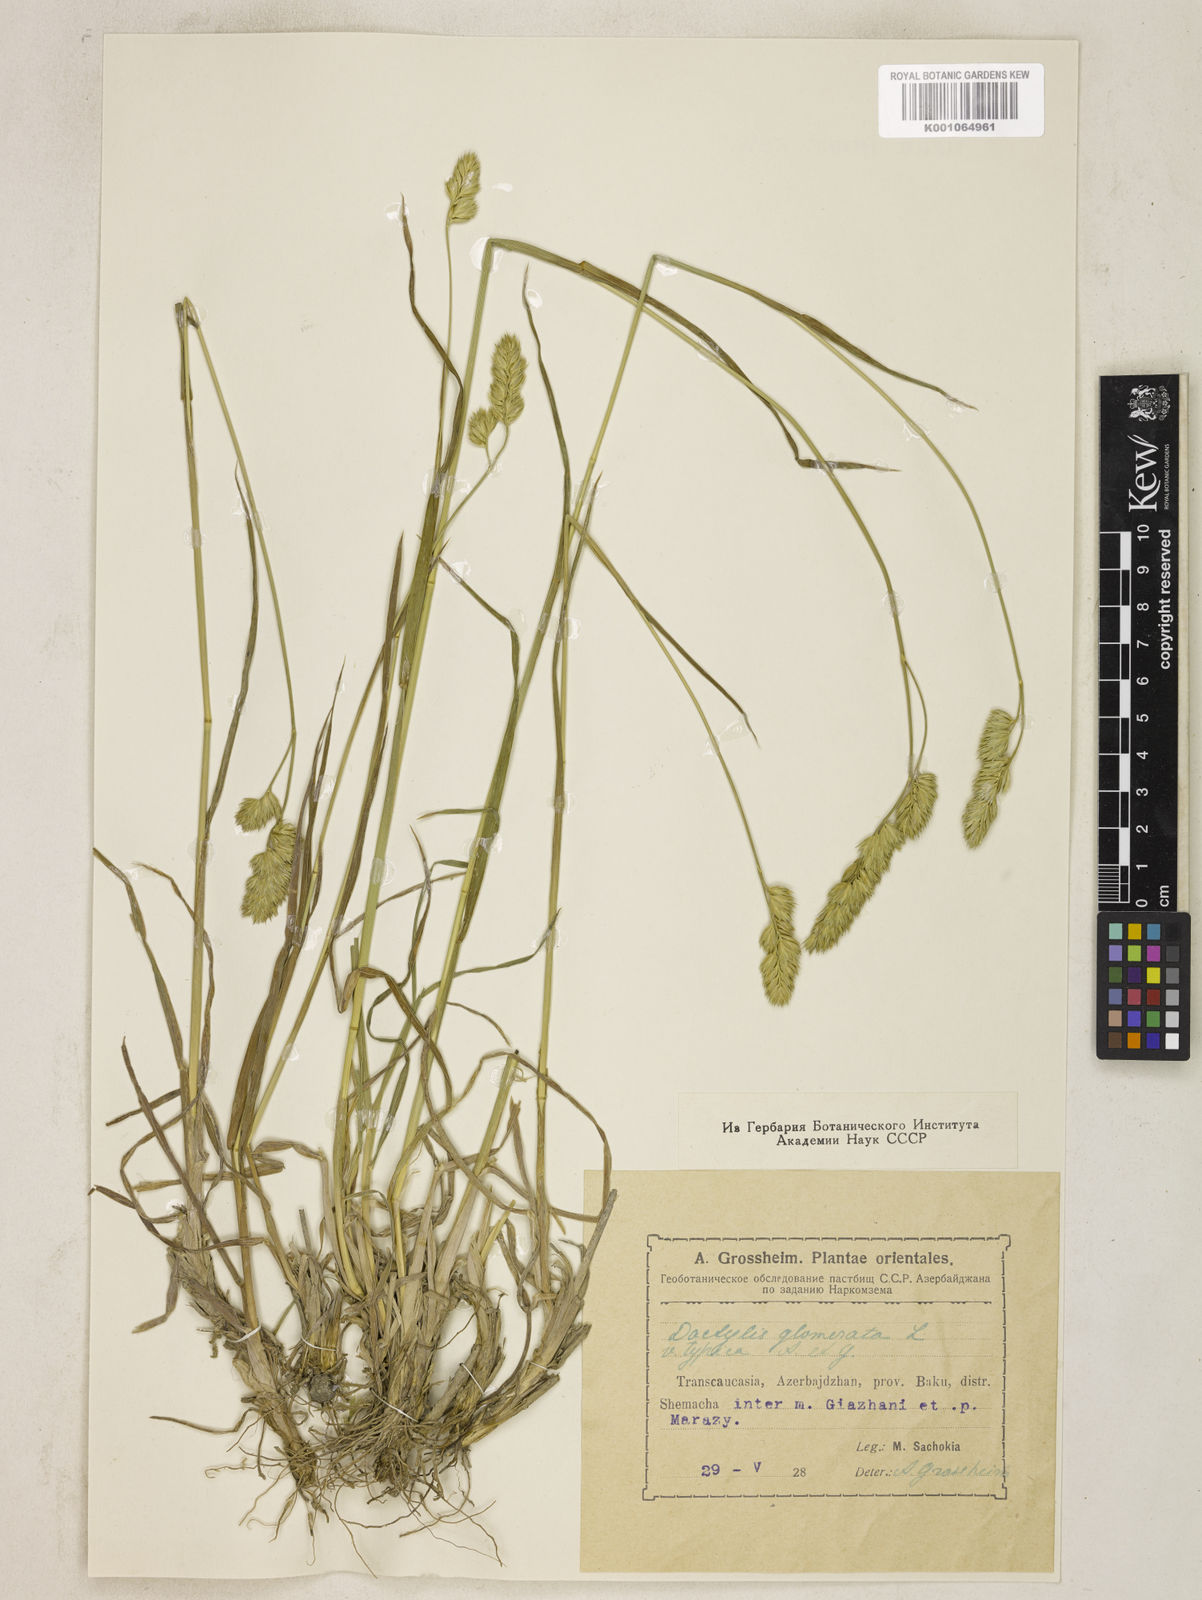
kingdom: Plantae
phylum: Tracheophyta
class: Liliopsida
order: Poales
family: Poaceae
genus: Dactylis
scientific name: Dactylis glomerata
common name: Orchardgrass
